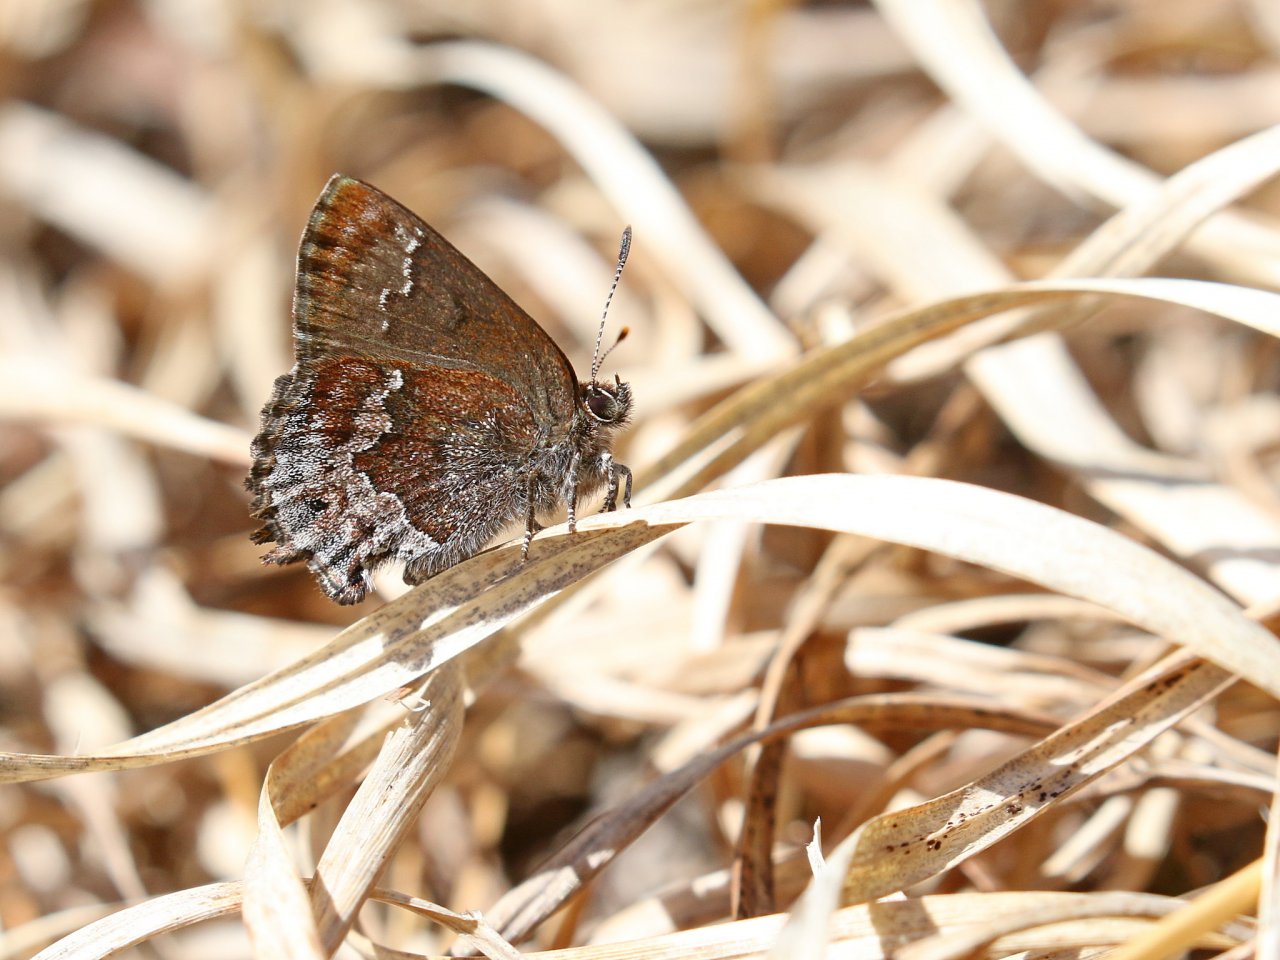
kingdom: Animalia
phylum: Arthropoda
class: Insecta
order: Lepidoptera
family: Lycaenidae
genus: Thecla
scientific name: Thecla irus
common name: Frosted Elfin
